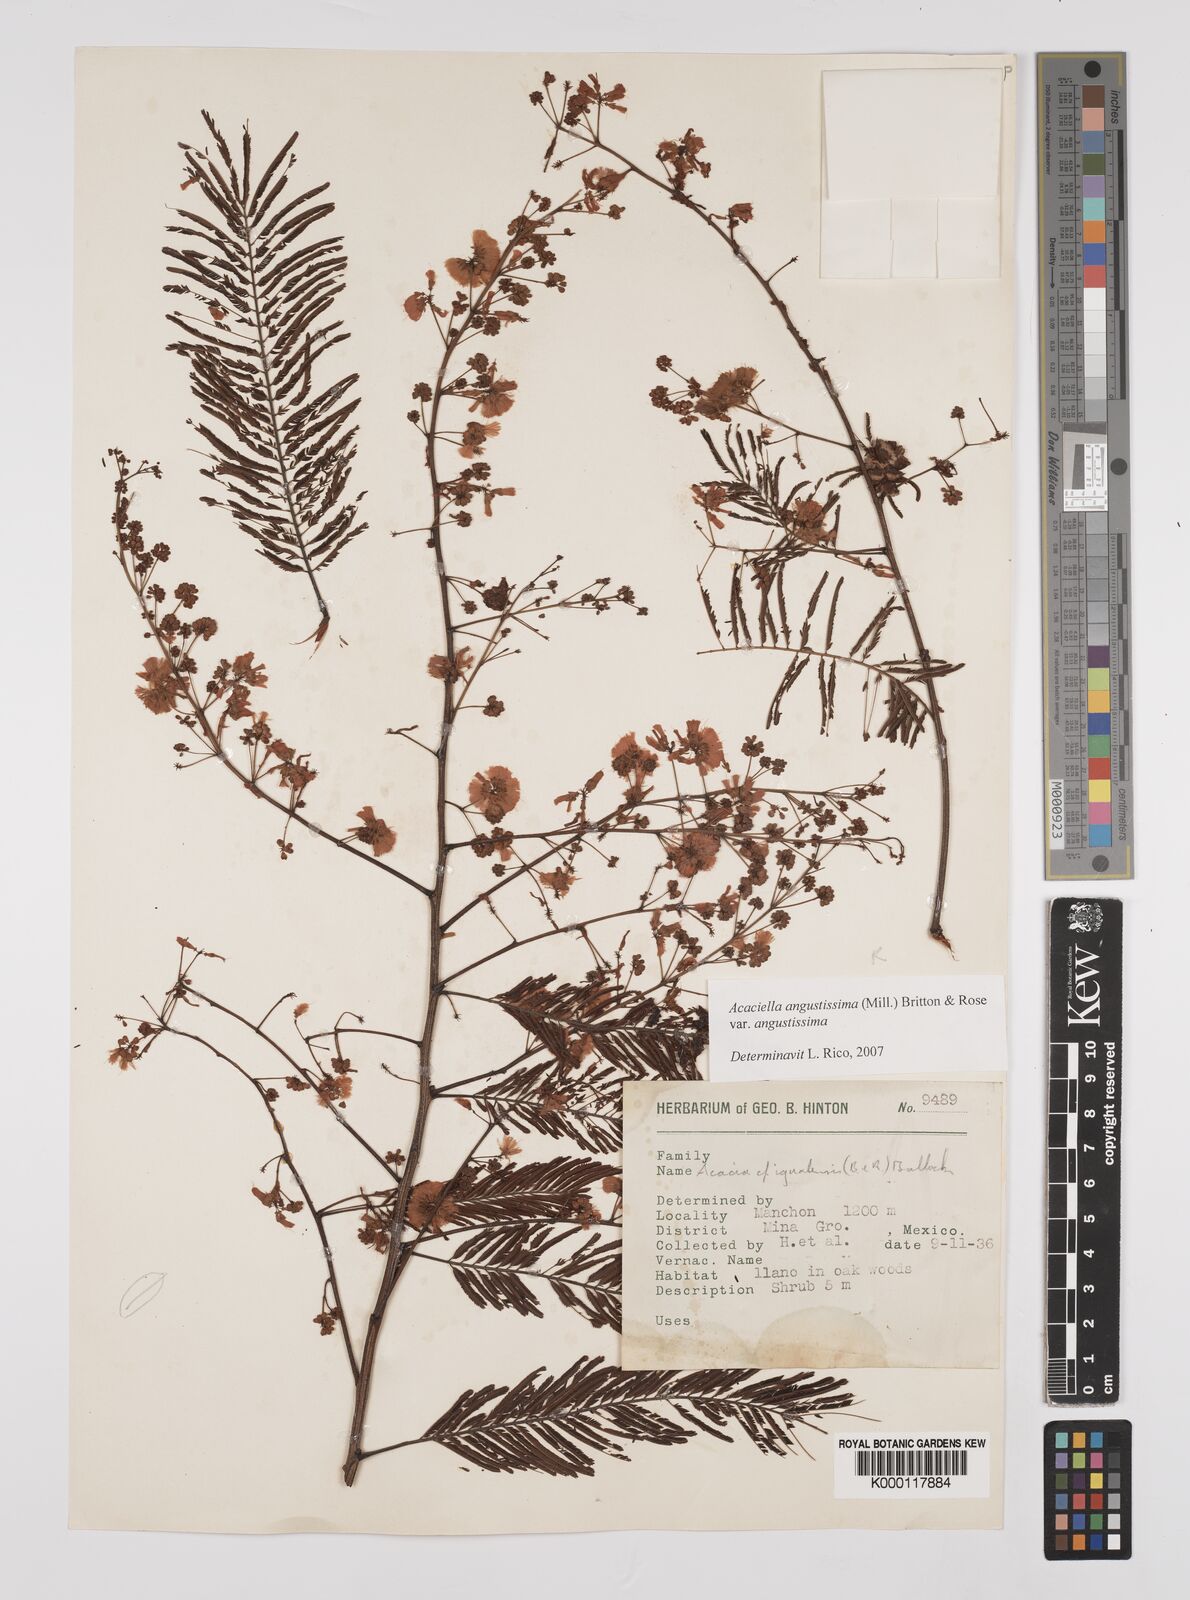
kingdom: Plantae
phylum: Tracheophyta
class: Magnoliopsida
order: Fabales
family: Fabaceae
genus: Acaciella
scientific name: Acaciella angustissima
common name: Prairie acacia
